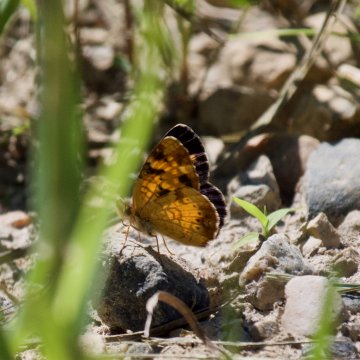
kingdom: Animalia
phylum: Arthropoda
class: Insecta
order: Lepidoptera
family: Nymphalidae
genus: Phyciodes
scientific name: Phyciodes tharos
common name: Northern Crescent
